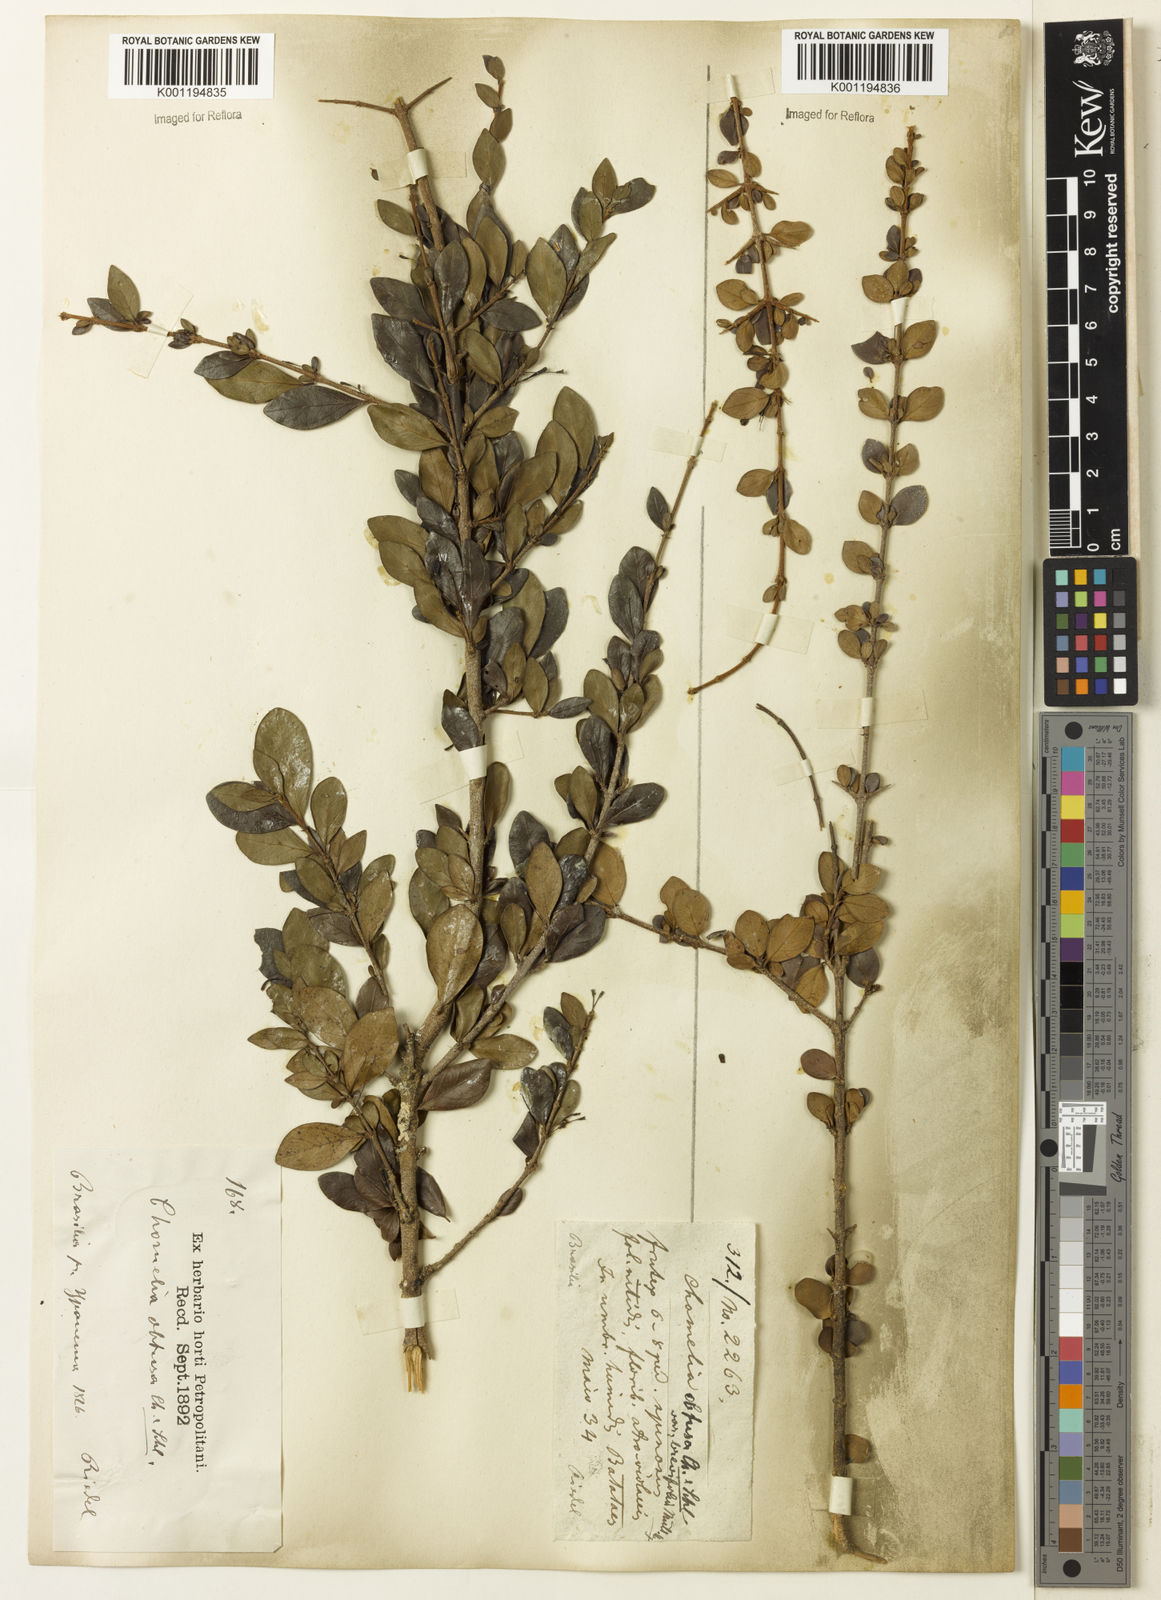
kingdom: Plantae
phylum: Tracheophyta
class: Magnoliopsida
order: Gentianales
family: Rubiaceae
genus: Chomelia
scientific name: Chomelia obtusa
